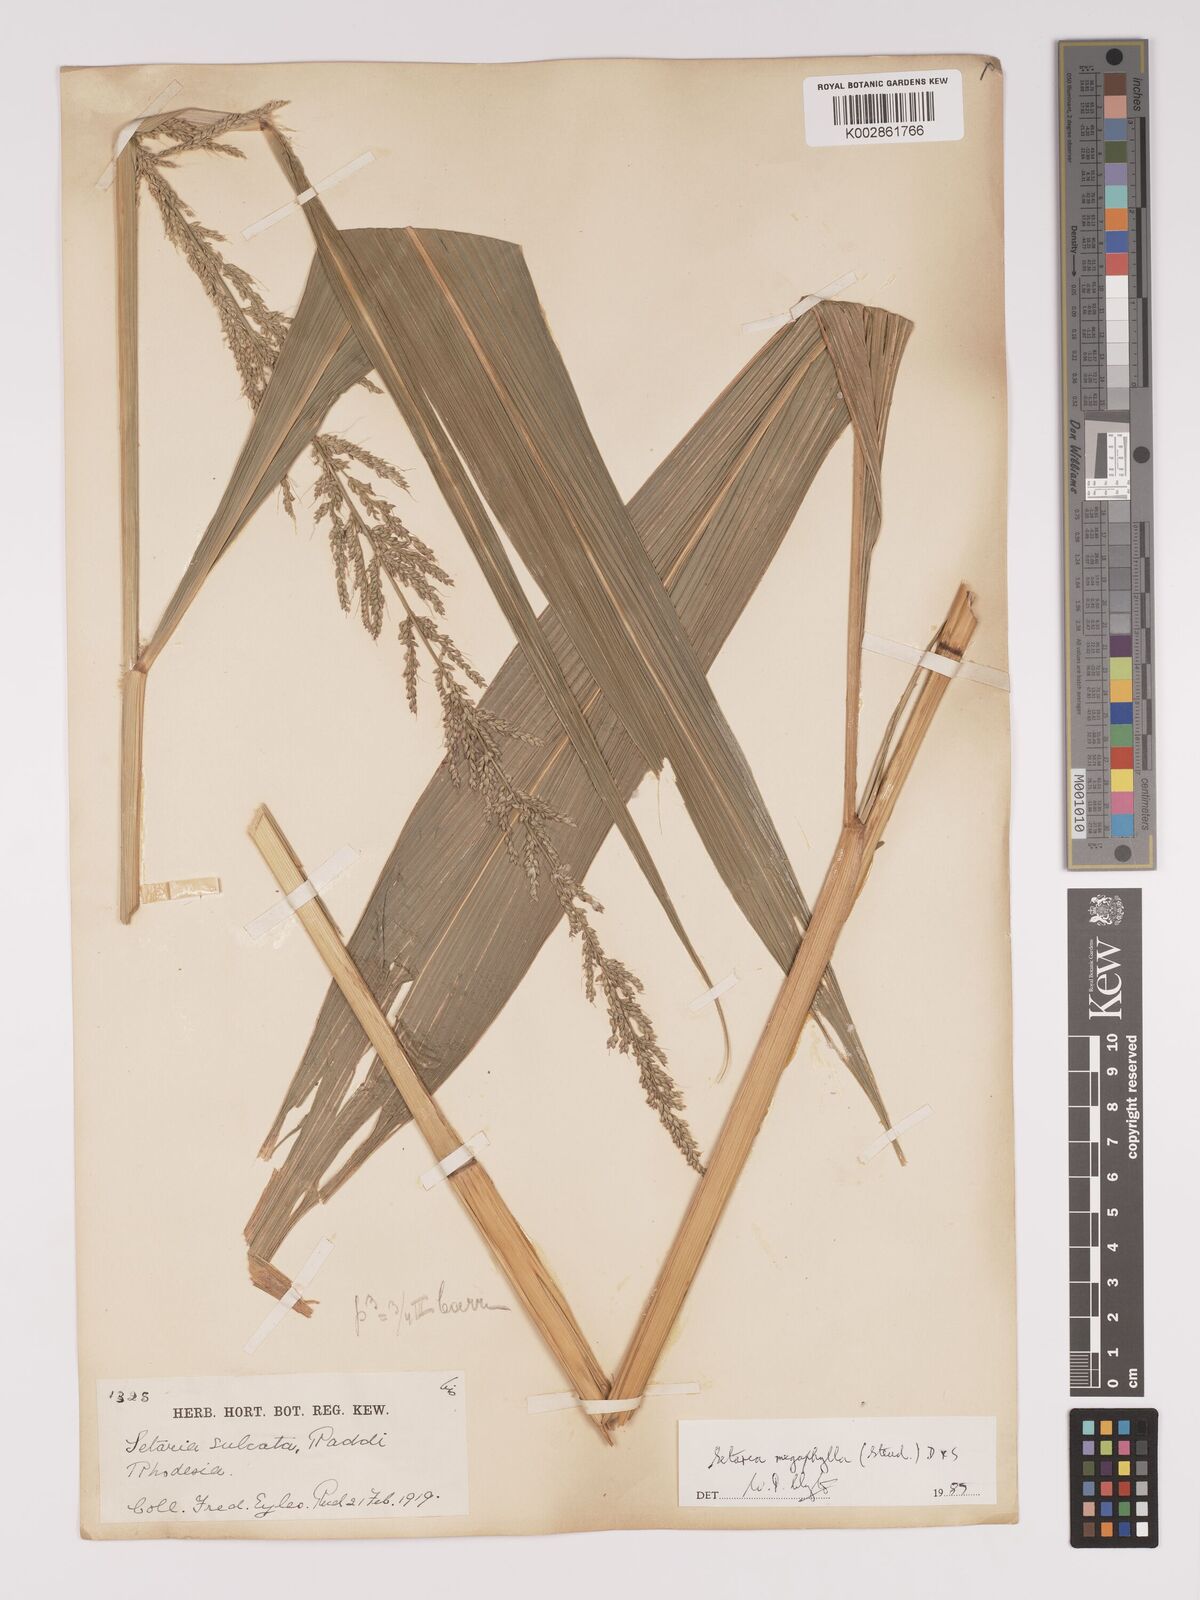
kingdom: Plantae
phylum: Tracheophyta
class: Liliopsida
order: Poales
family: Poaceae
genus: Setaria
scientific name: Setaria megaphylla
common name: Bigleaf bristlegrass
